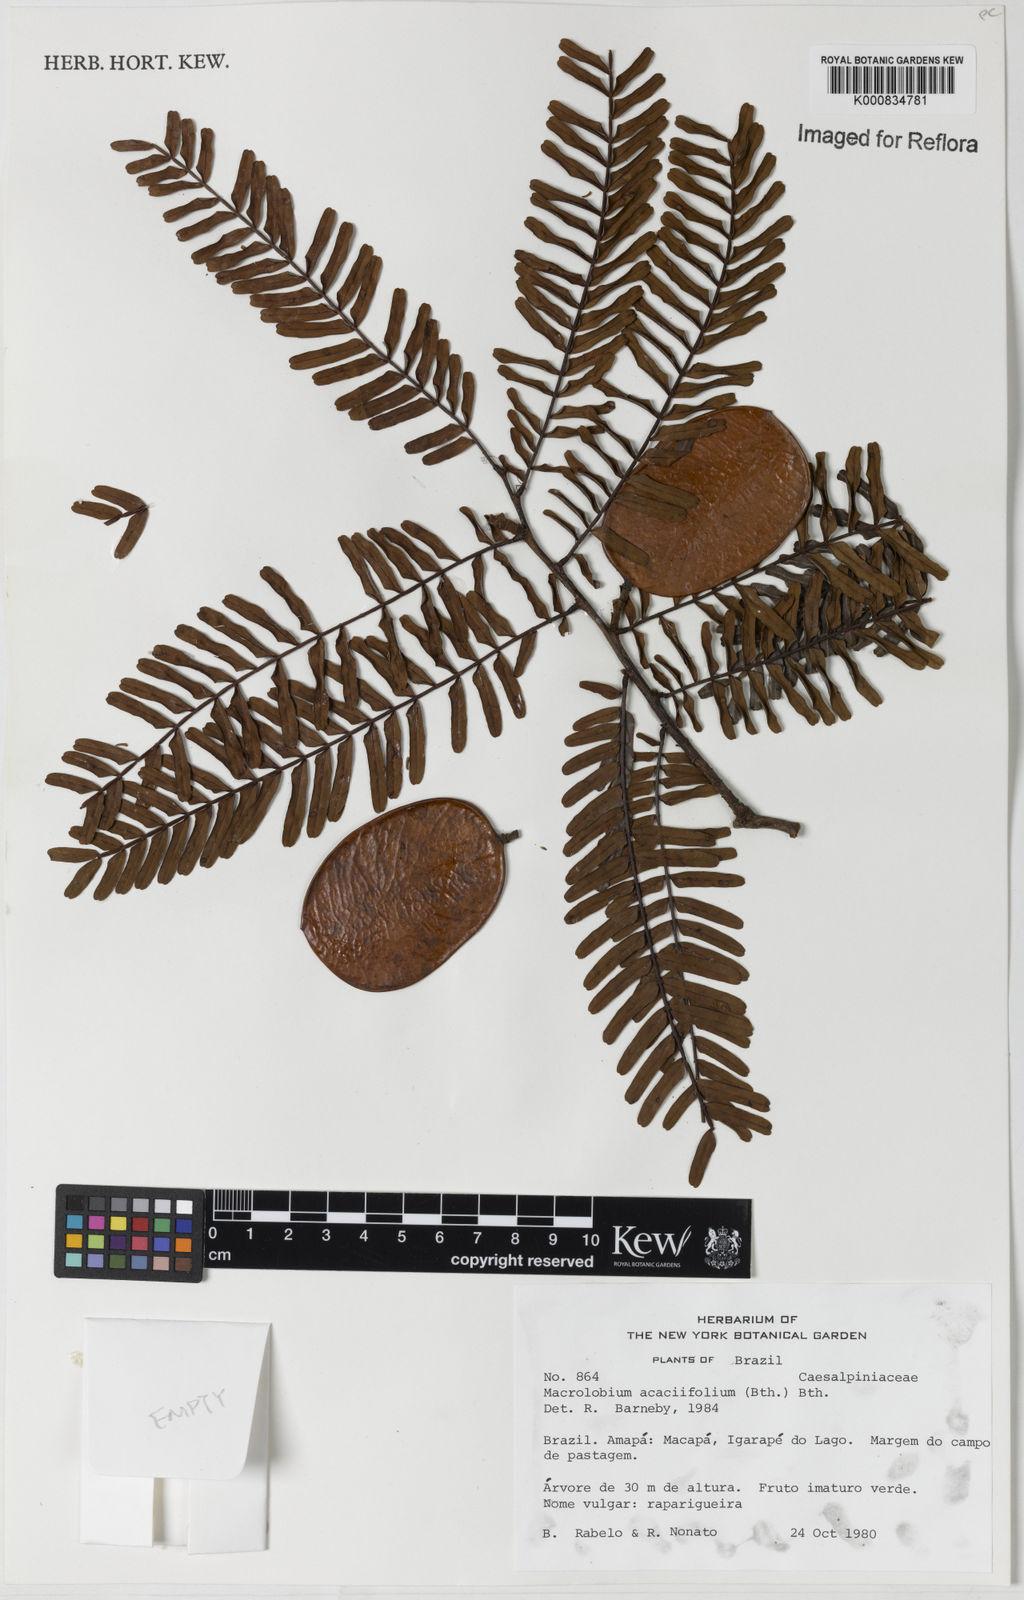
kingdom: Plantae
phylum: Tracheophyta
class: Magnoliopsida
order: Fabales
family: Fabaceae
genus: Macrolobium
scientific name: Macrolobium acaciifolium
